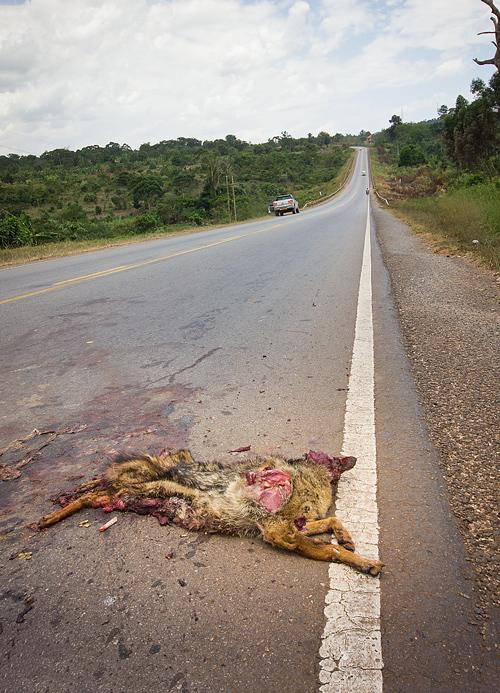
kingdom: Animalia
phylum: Chordata
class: Mammalia
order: Carnivora
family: Canidae
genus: Canis
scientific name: Canis lupus
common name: Gray wolf
